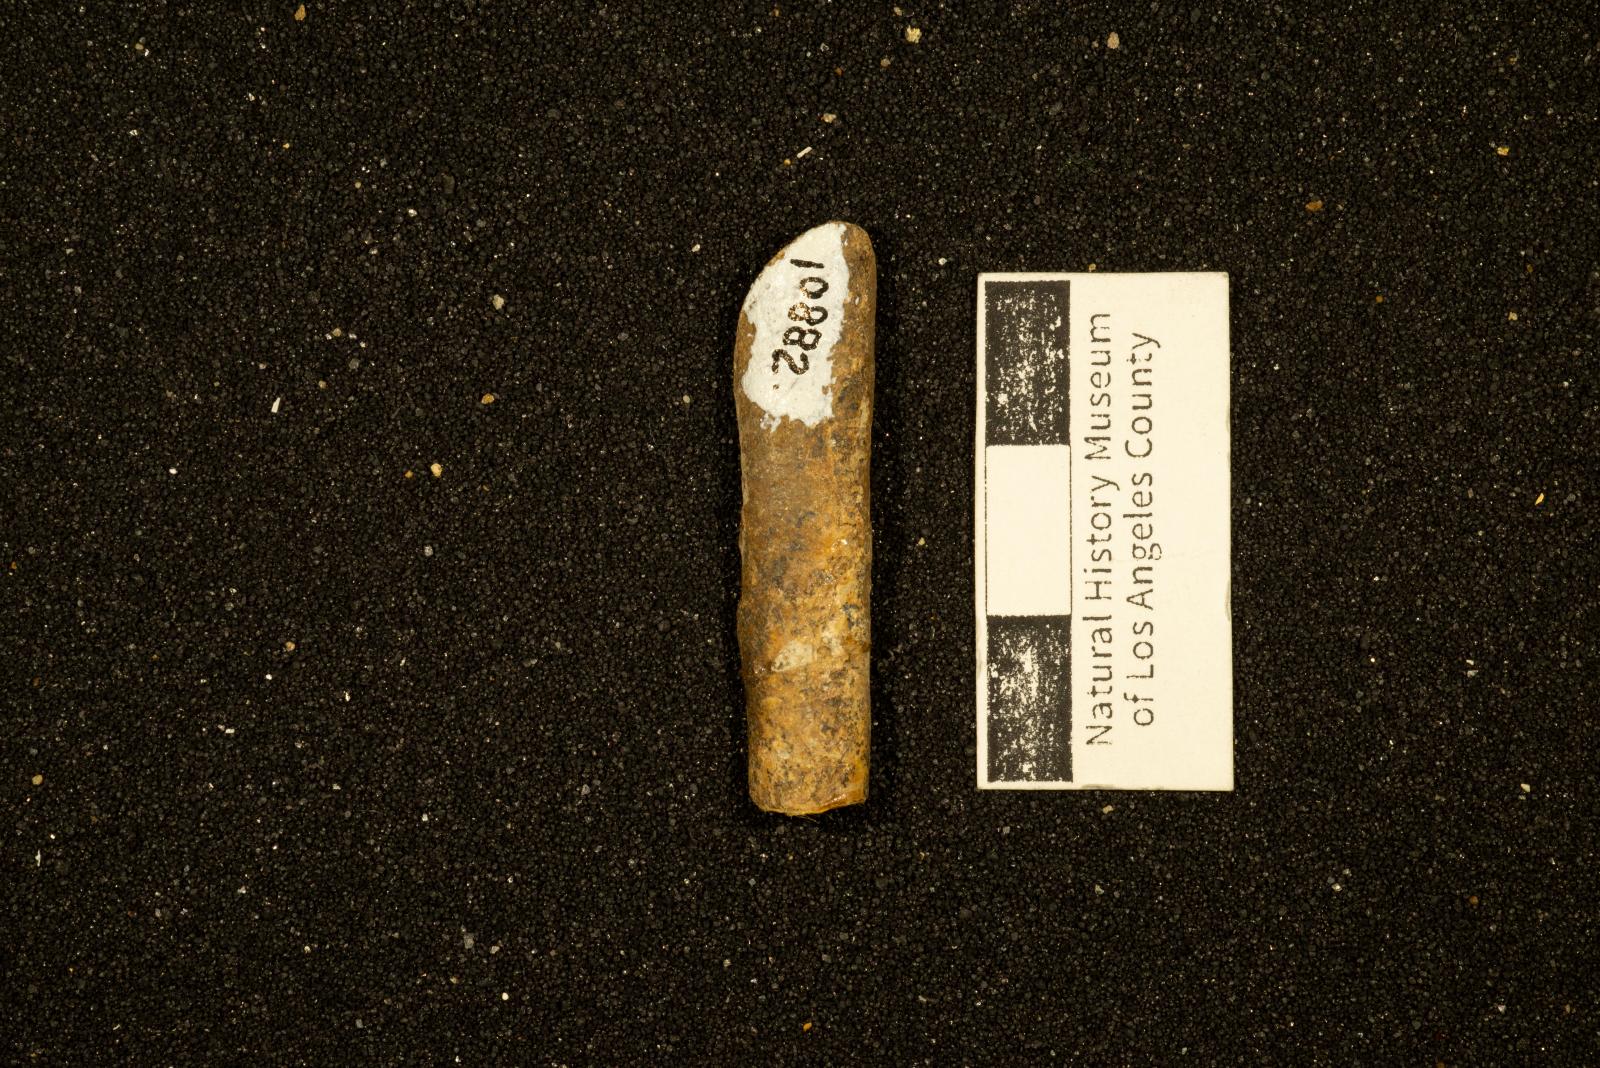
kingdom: Animalia
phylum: Mollusca
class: Cephalopoda
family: Baculitidae
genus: Sciponoceras
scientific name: Sciponoceras
